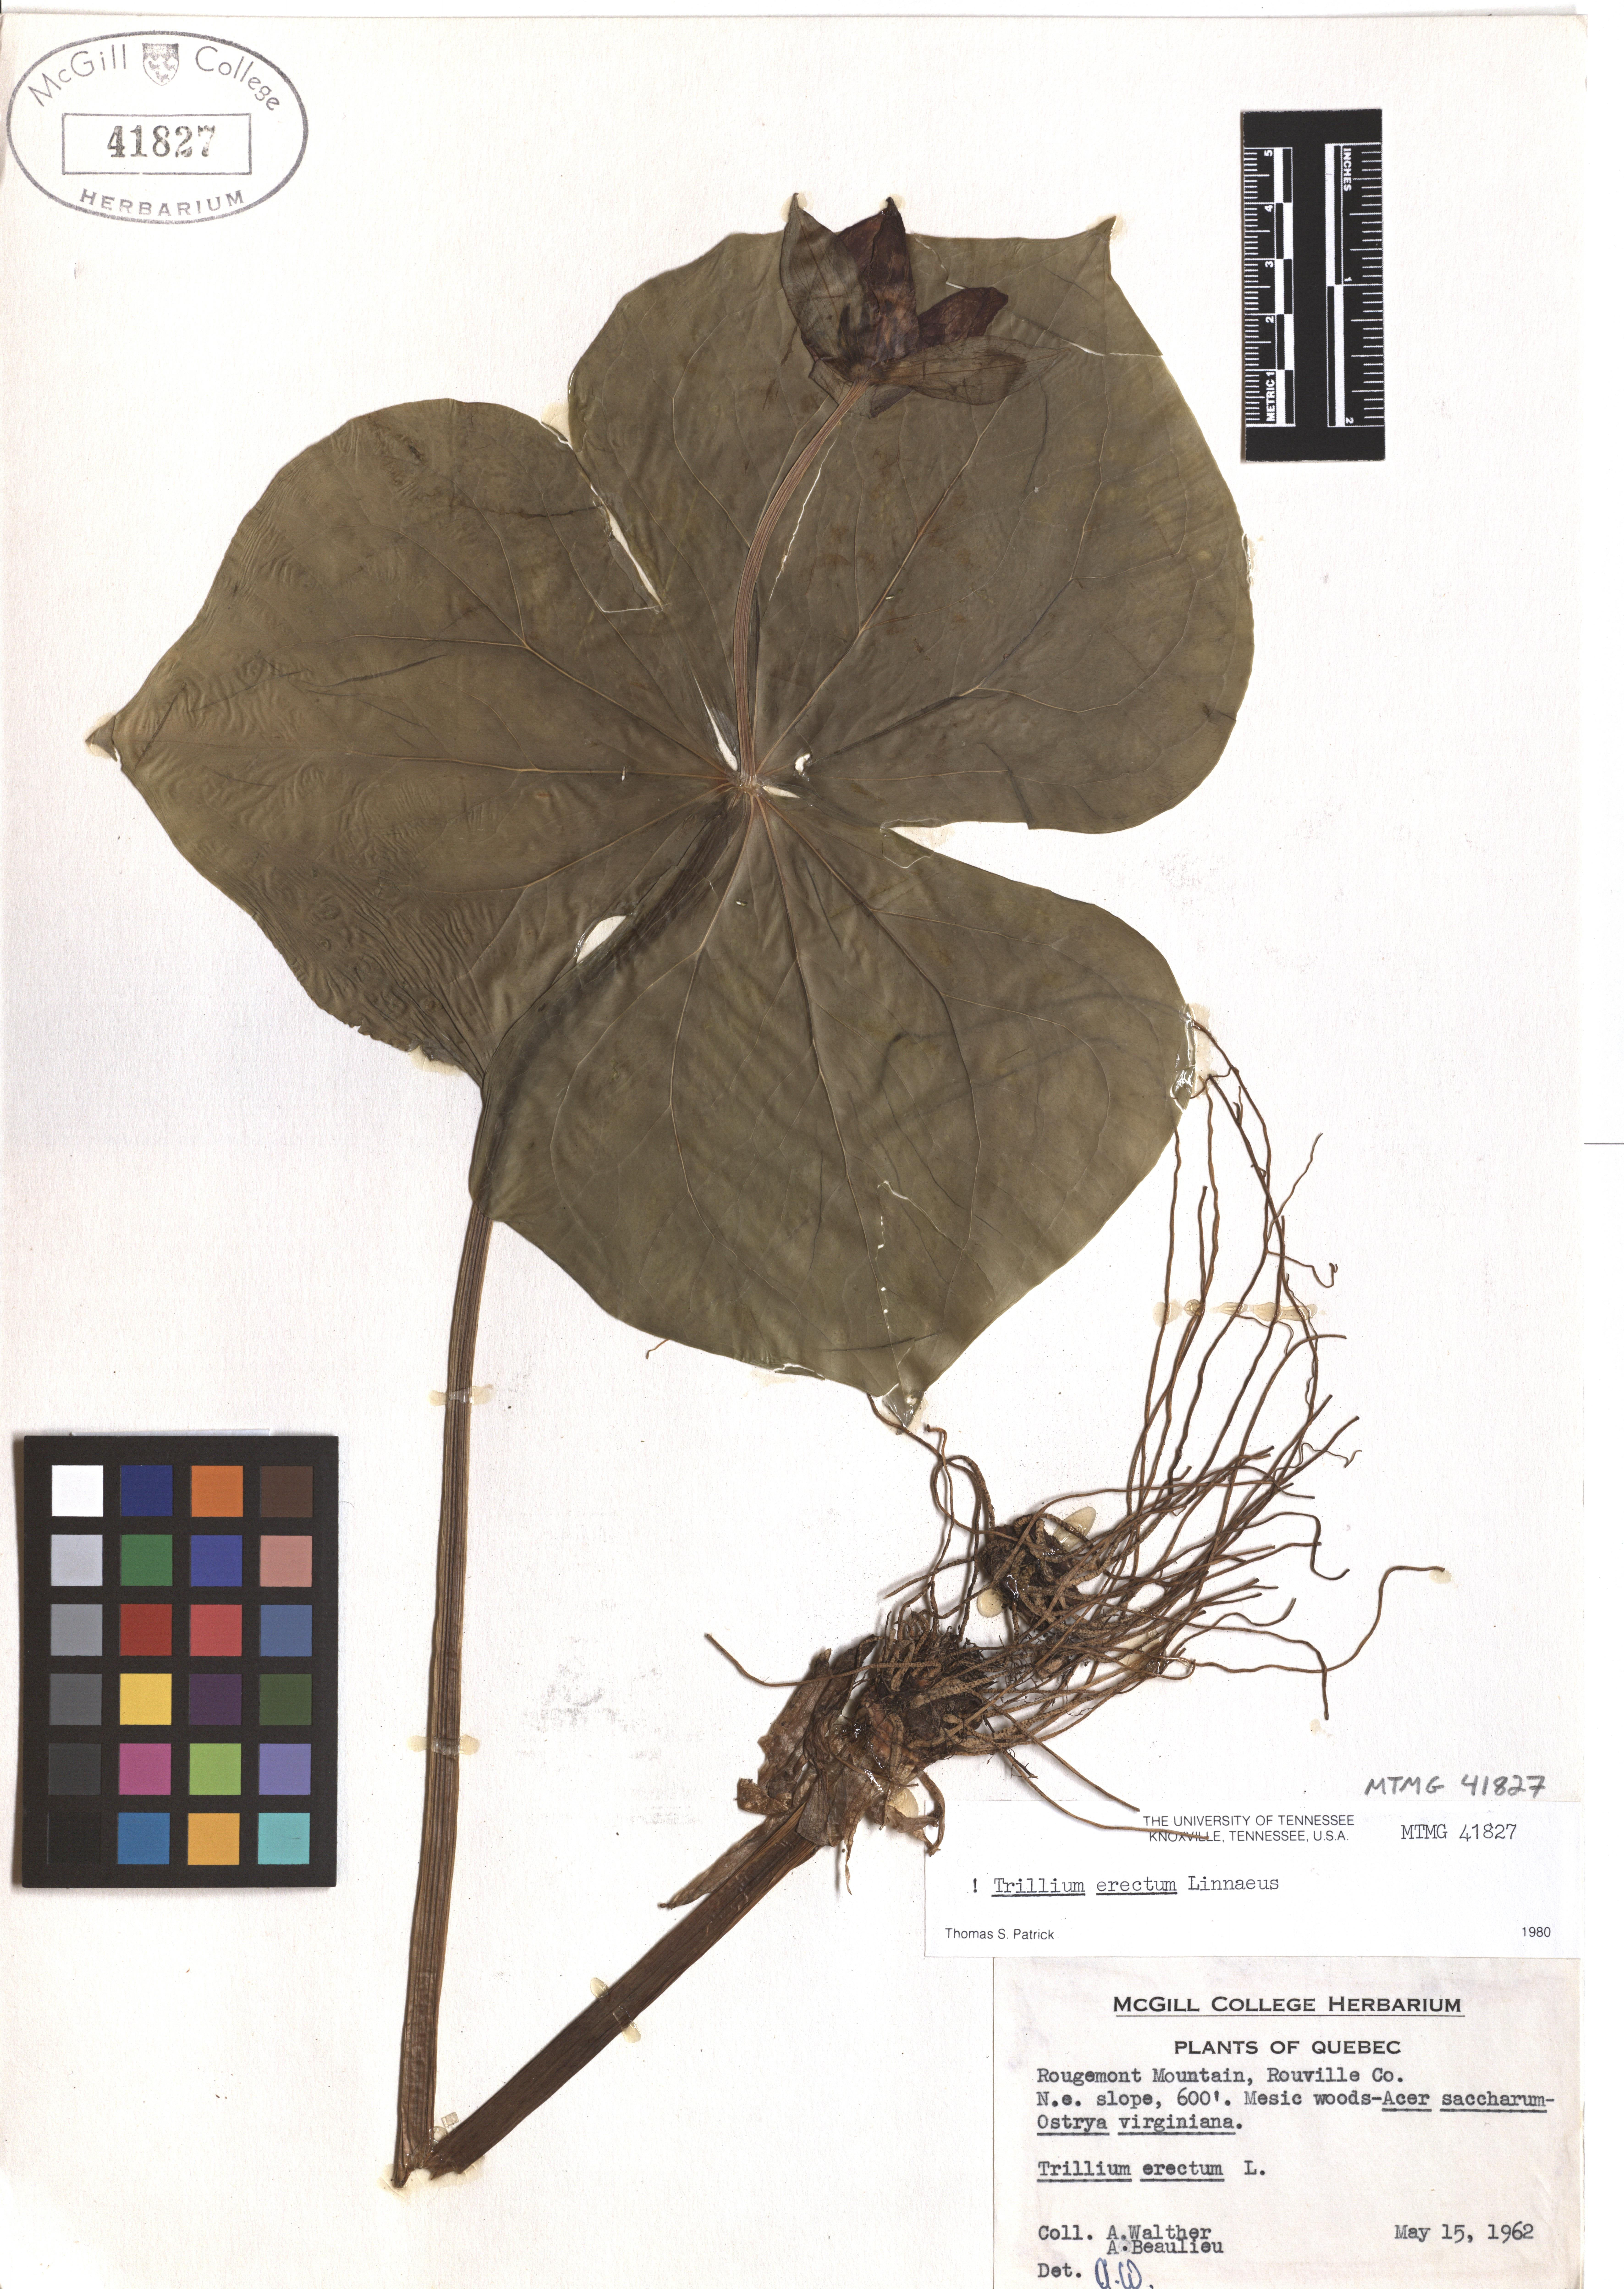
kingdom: Plantae
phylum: Tracheophyta
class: Liliopsida
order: Liliales
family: Melanthiaceae
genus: Trillium
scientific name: Trillium erectum
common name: Purple trillium
